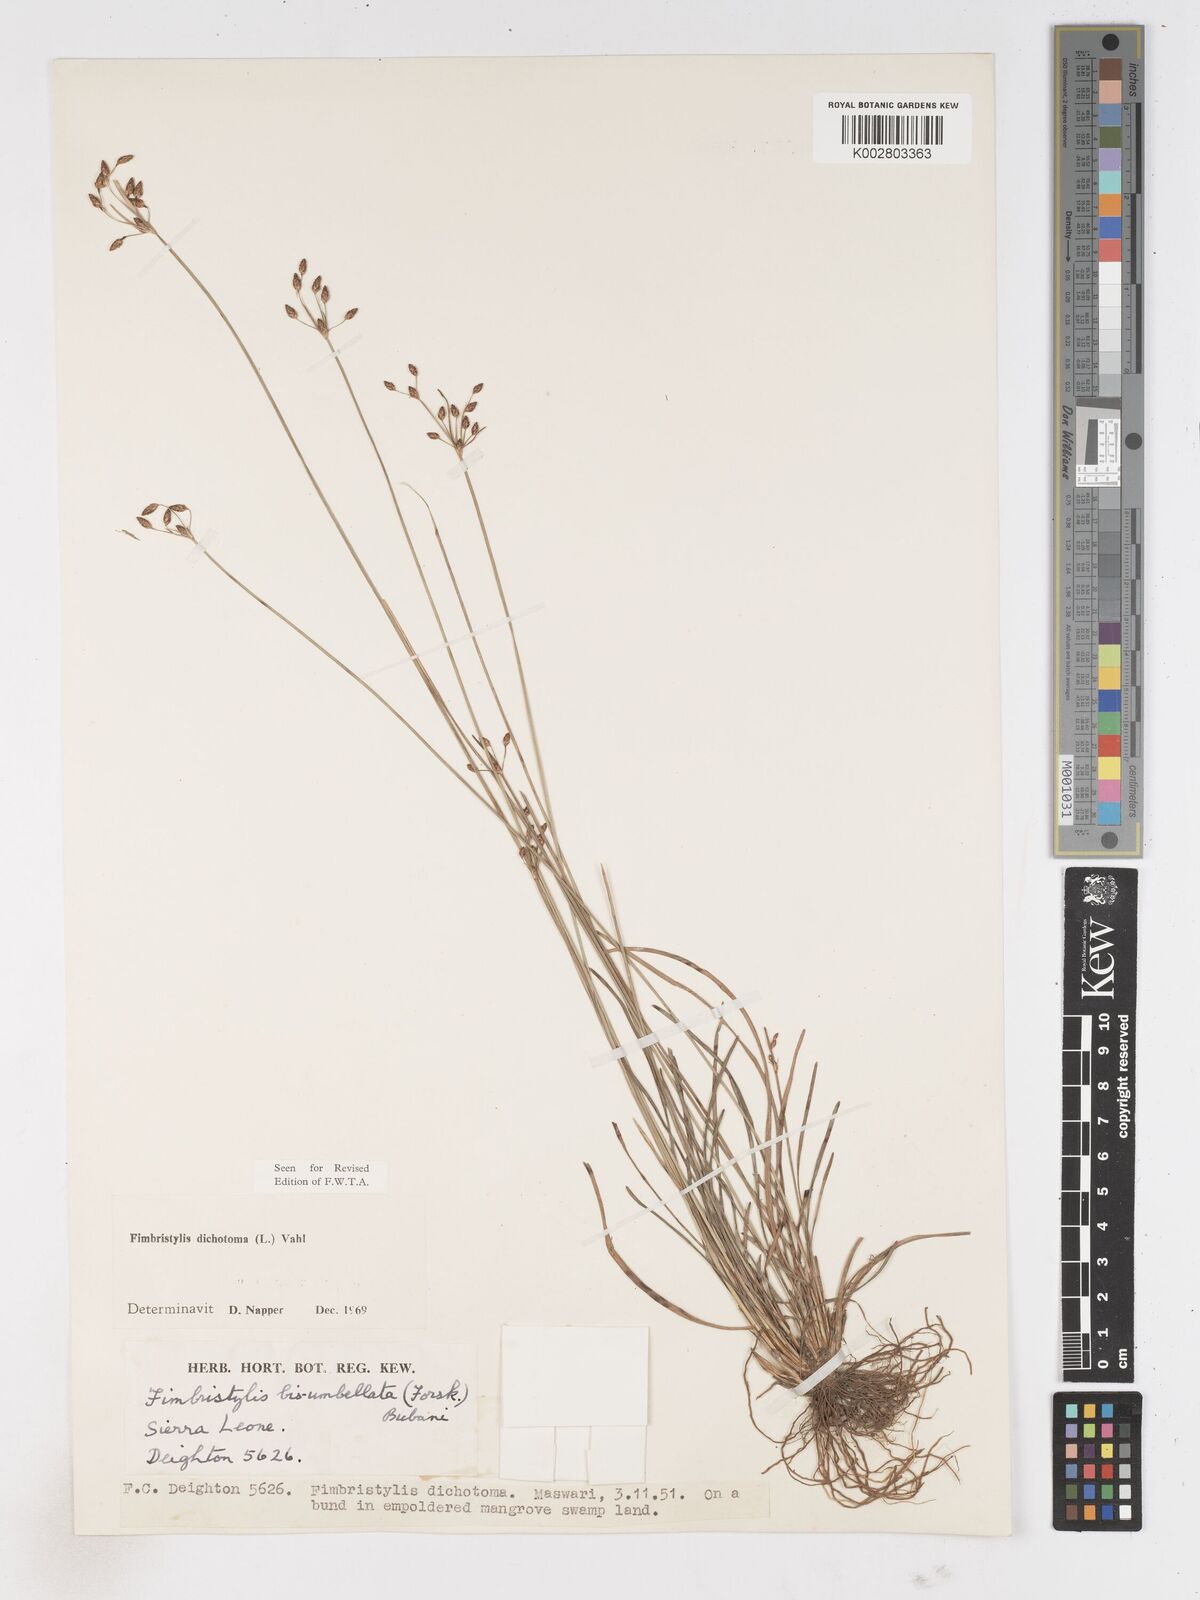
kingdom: Plantae
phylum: Tracheophyta
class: Liliopsida
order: Poales
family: Cyperaceae
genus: Fimbristylis
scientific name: Fimbristylis dichotoma
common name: Forked fimbry
